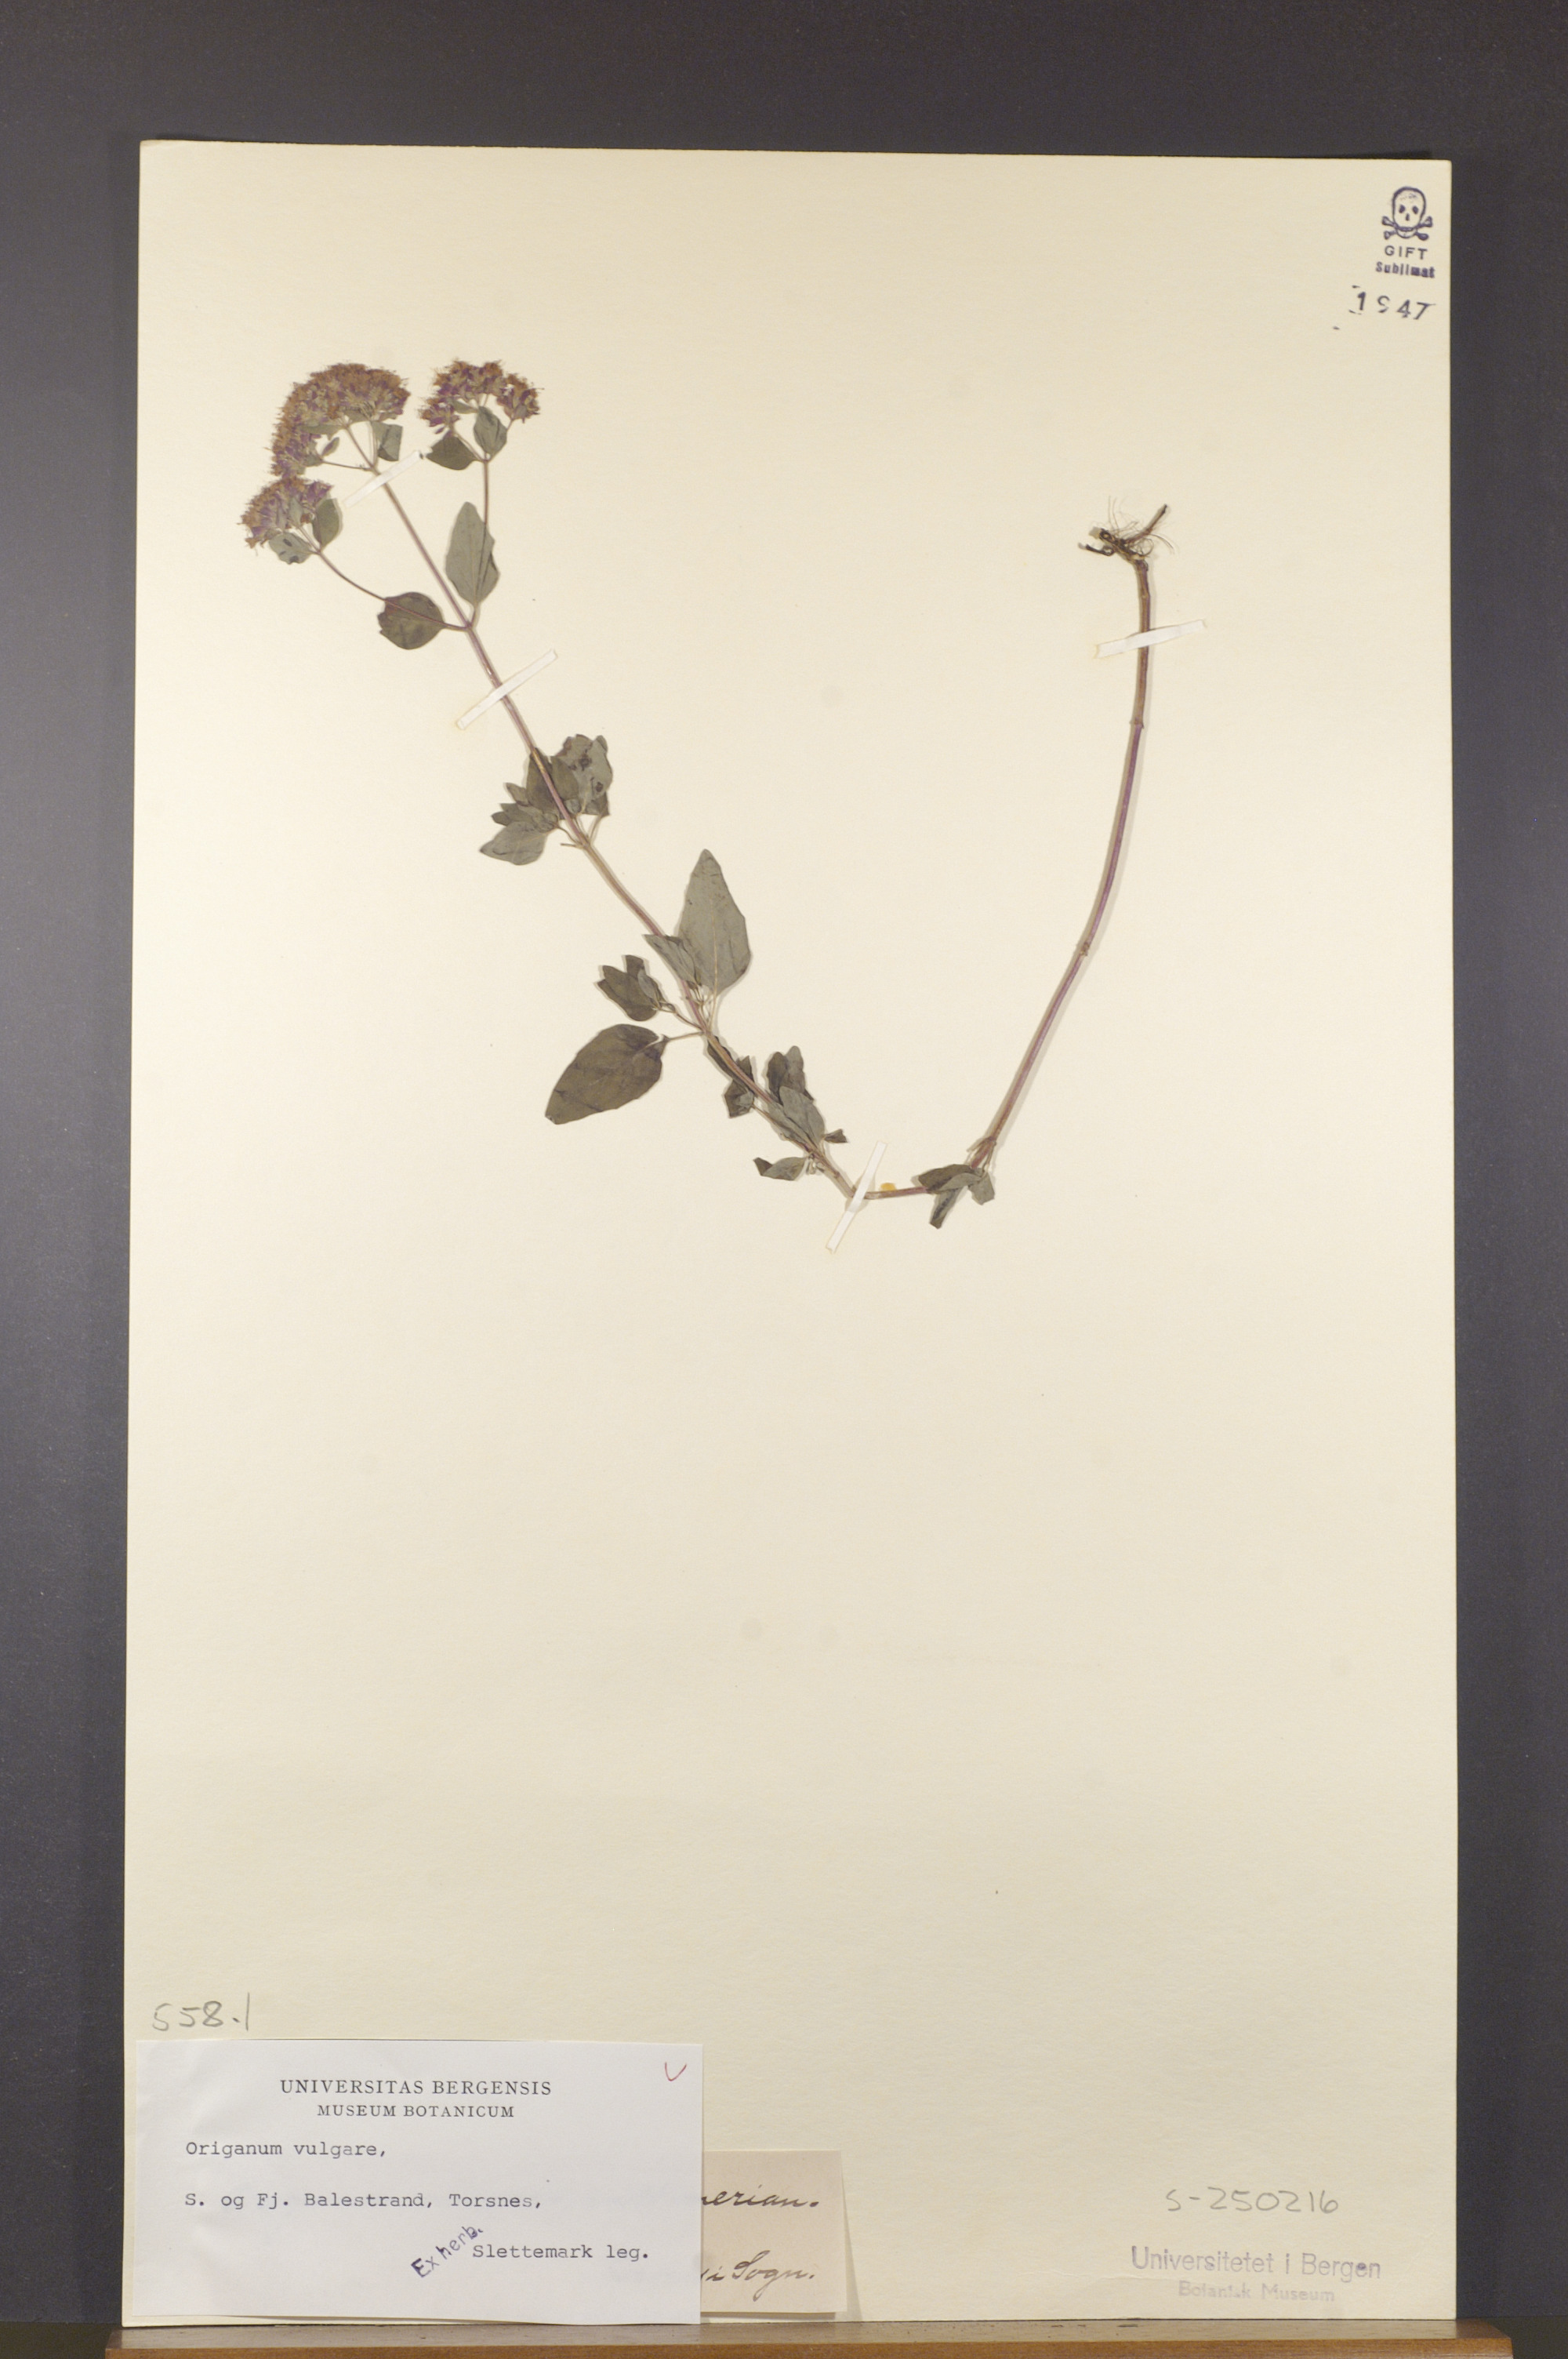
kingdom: Plantae
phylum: Tracheophyta
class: Magnoliopsida
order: Lamiales
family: Lamiaceae
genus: Origanum
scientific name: Origanum vulgare
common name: Wild marjoram
